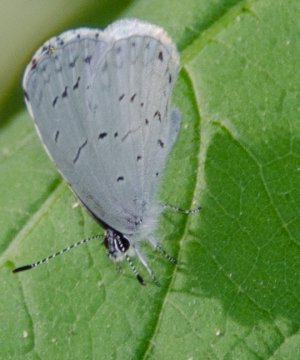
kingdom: Animalia
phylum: Arthropoda
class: Insecta
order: Lepidoptera
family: Lycaenidae
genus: Cyaniris
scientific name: Cyaniris neglecta
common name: Summer Azure
